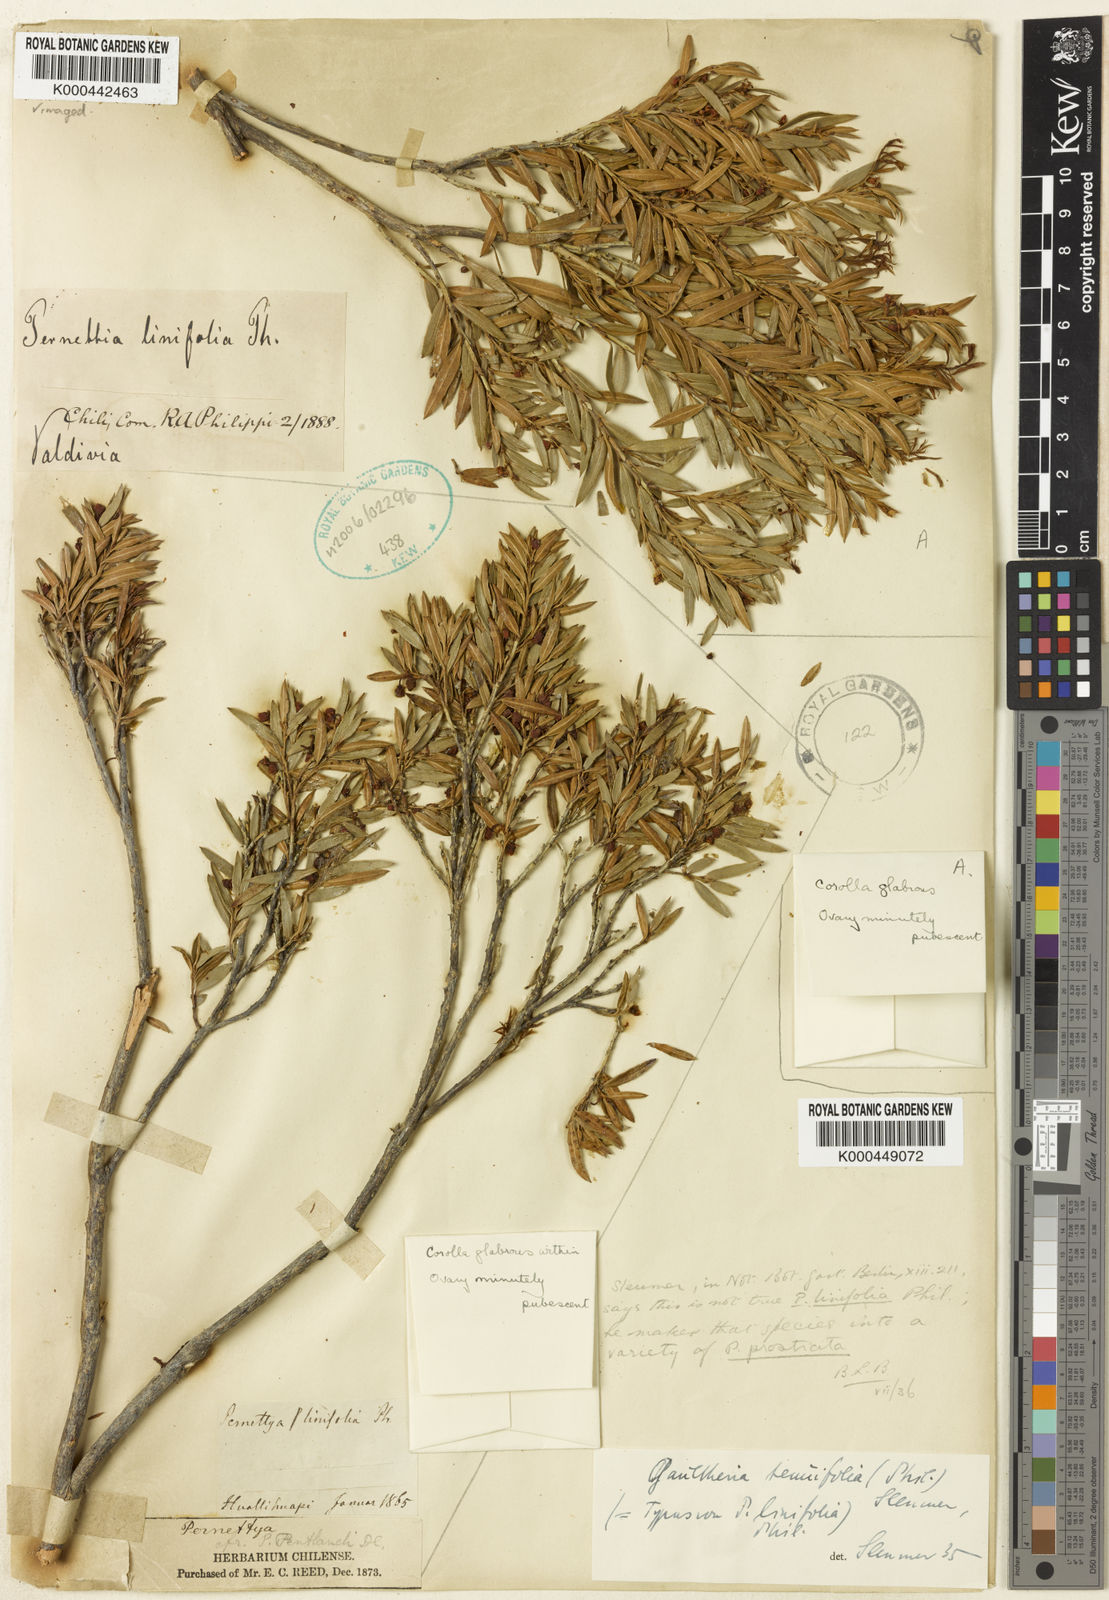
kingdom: Plantae
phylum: Tracheophyta
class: Magnoliopsida
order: Ericales
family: Ericaceae
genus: Gaultheria
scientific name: Gaultheria tenuifolia
